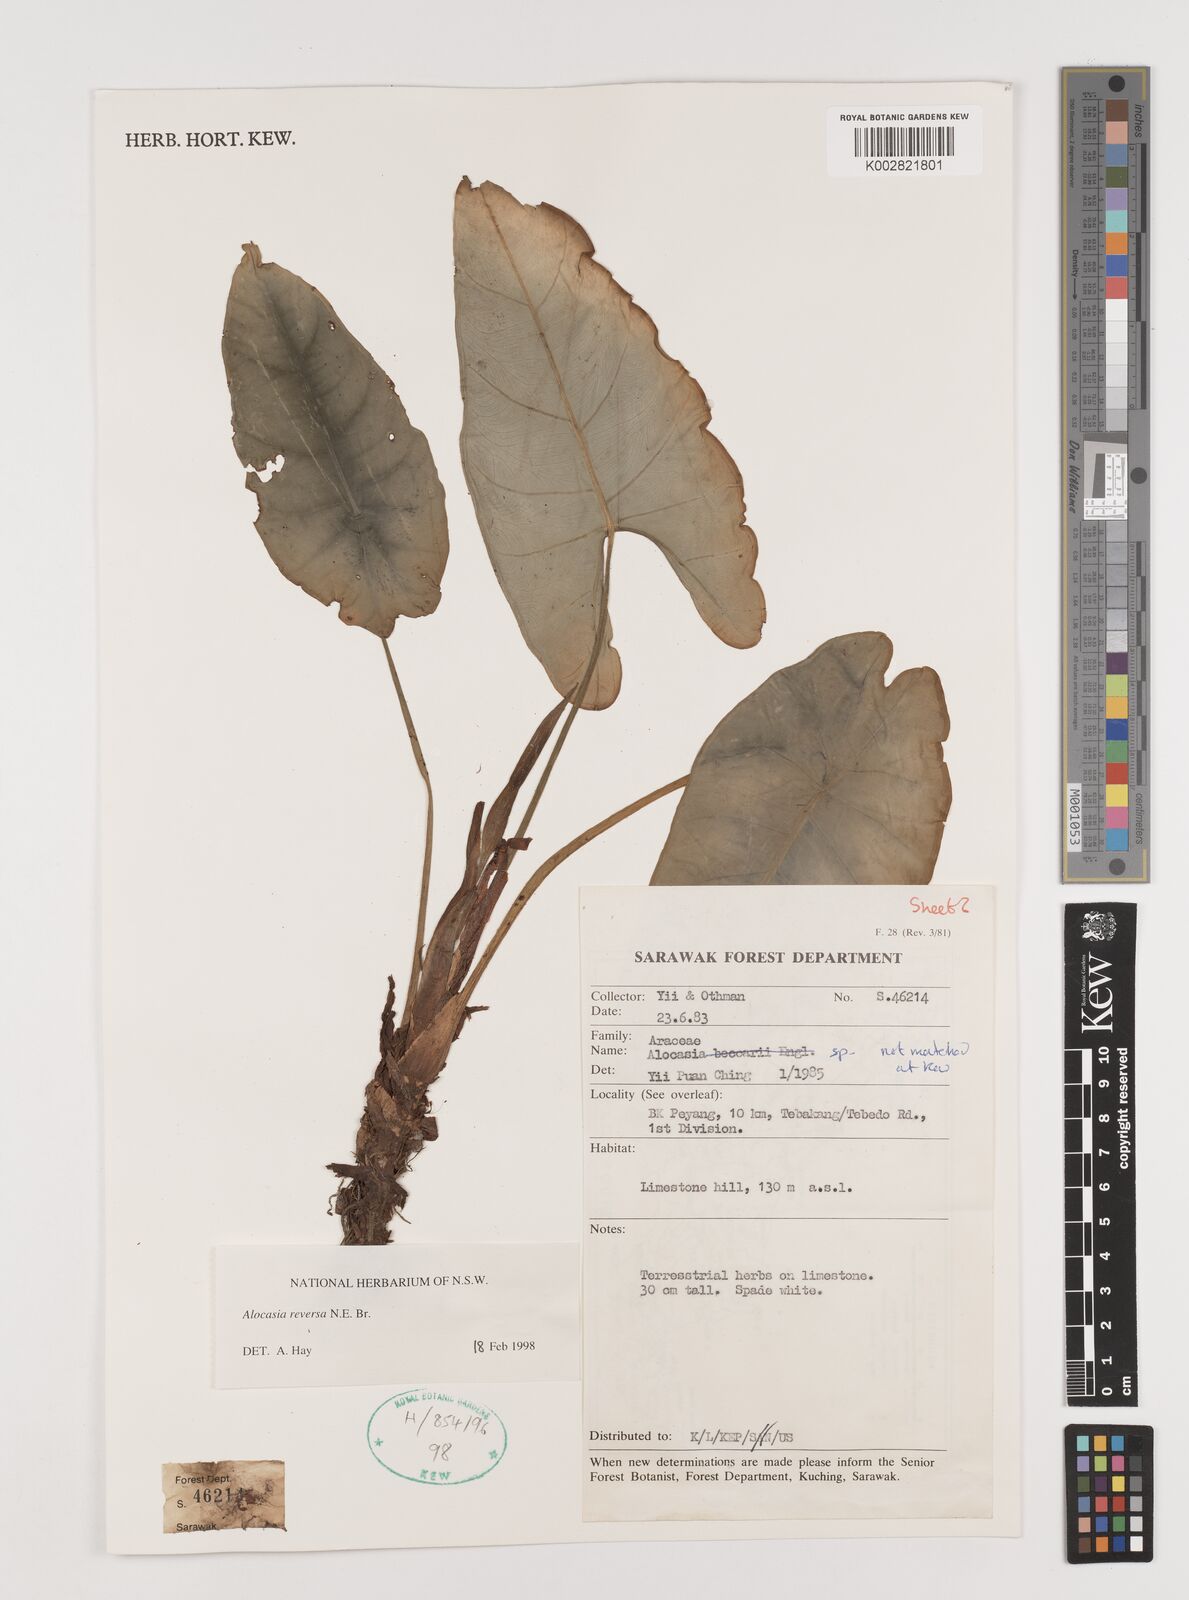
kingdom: Plantae
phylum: Tracheophyta
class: Liliopsida
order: Alismatales
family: Araceae
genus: Alocasia
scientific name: Alocasia reversa
